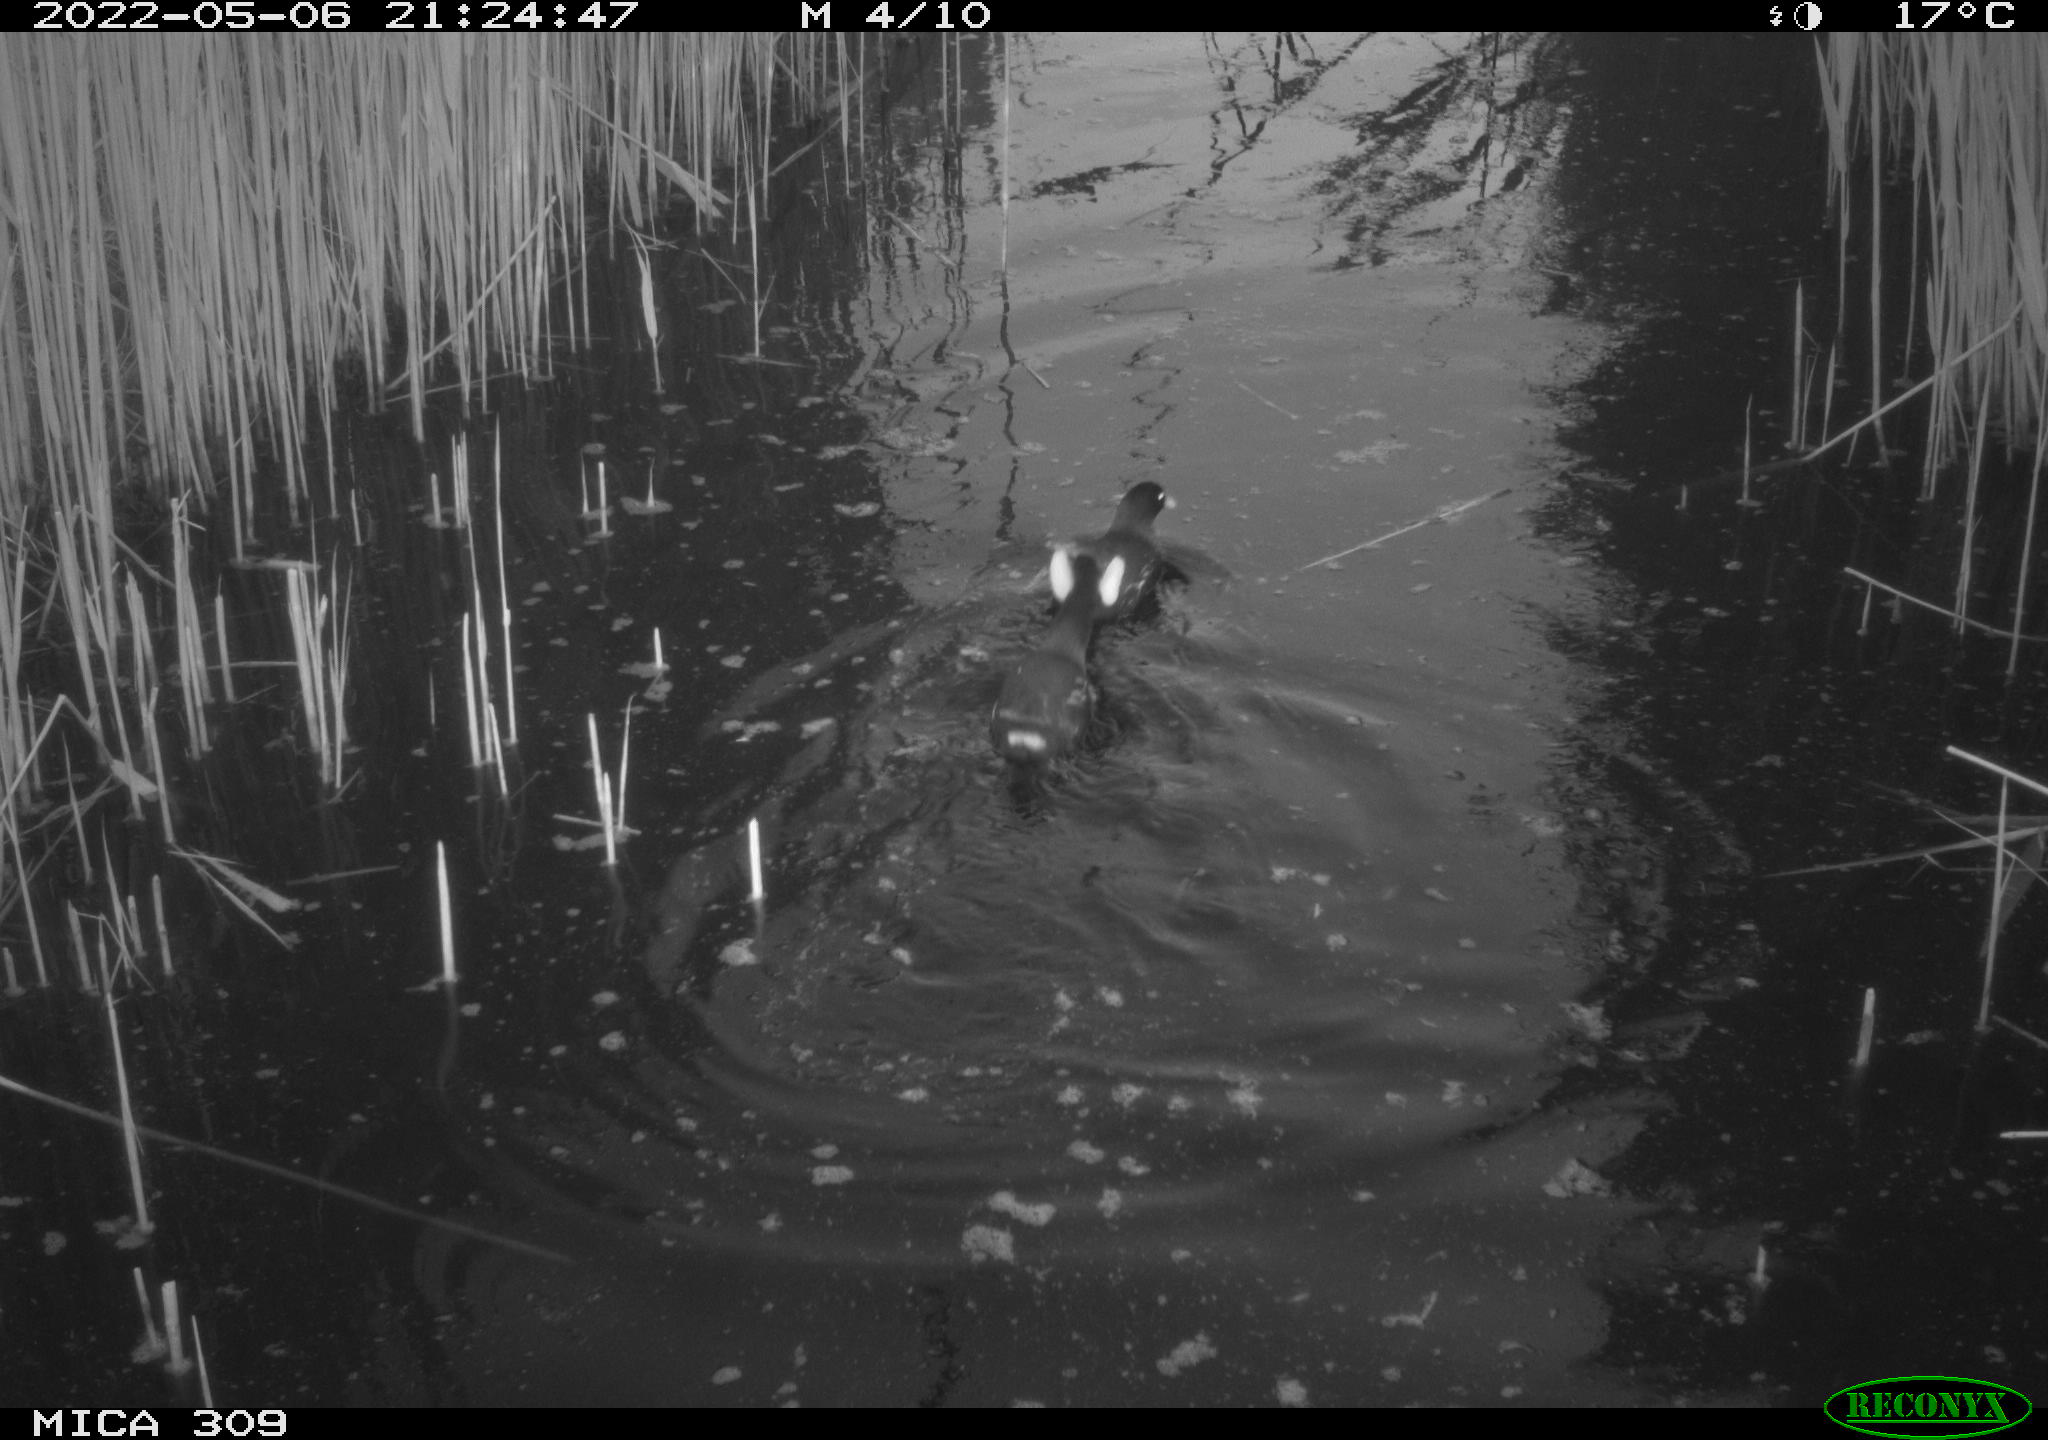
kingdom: Animalia
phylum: Chordata
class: Aves
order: Gruiformes
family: Rallidae
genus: Gallinula
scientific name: Gallinula chloropus
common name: Common moorhen
